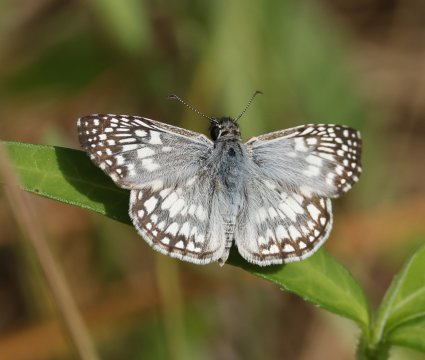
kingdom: Animalia
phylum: Arthropoda
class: Insecta
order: Lepidoptera
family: Hesperiidae
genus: Pyrgus
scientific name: Pyrgus oileus
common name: Tropical Checkered Skipper
